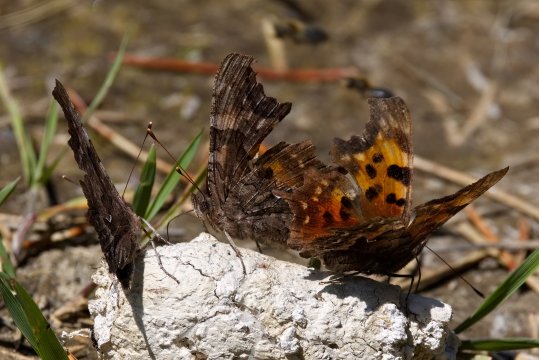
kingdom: Animalia
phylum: Arthropoda
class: Insecta
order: Lepidoptera
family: Nymphalidae
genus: Polygonia
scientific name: Polygonia faunus
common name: Green Comma
